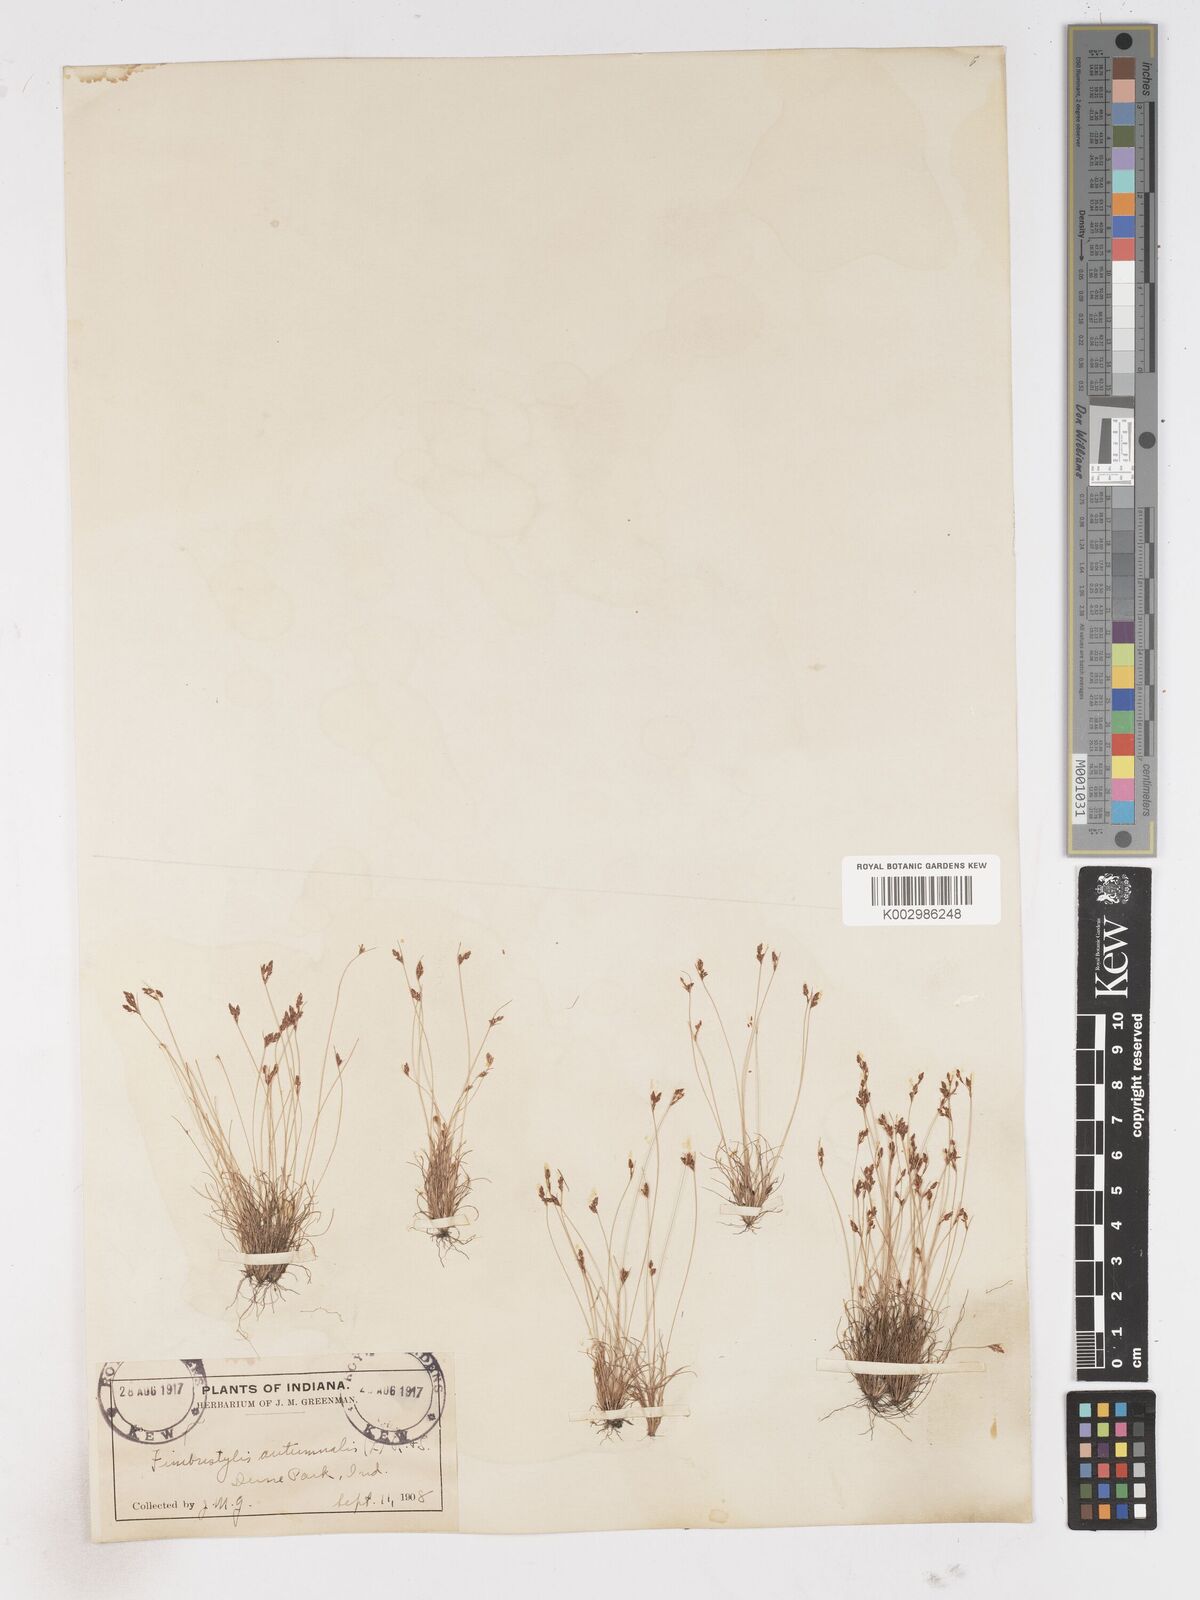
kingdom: Plantae
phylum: Tracheophyta
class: Liliopsida
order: Poales
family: Cyperaceae
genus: Fimbristylis
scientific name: Fimbristylis autumnalis
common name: Slender fimbristylis
